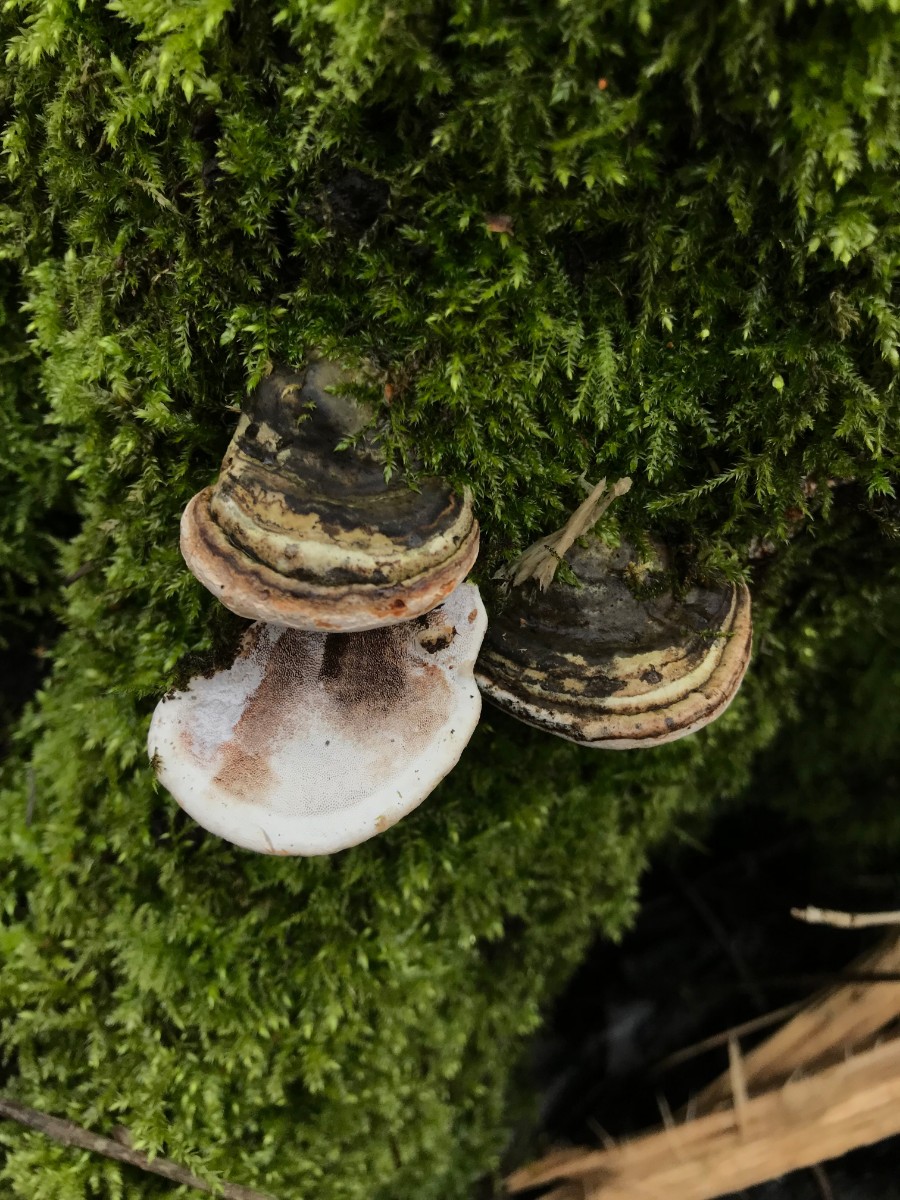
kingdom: Fungi
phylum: Basidiomycota
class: Agaricomycetes
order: Polyporales
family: Polyporaceae
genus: Ganoderma
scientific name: Ganoderma applanatum
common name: flad lakporesvamp
